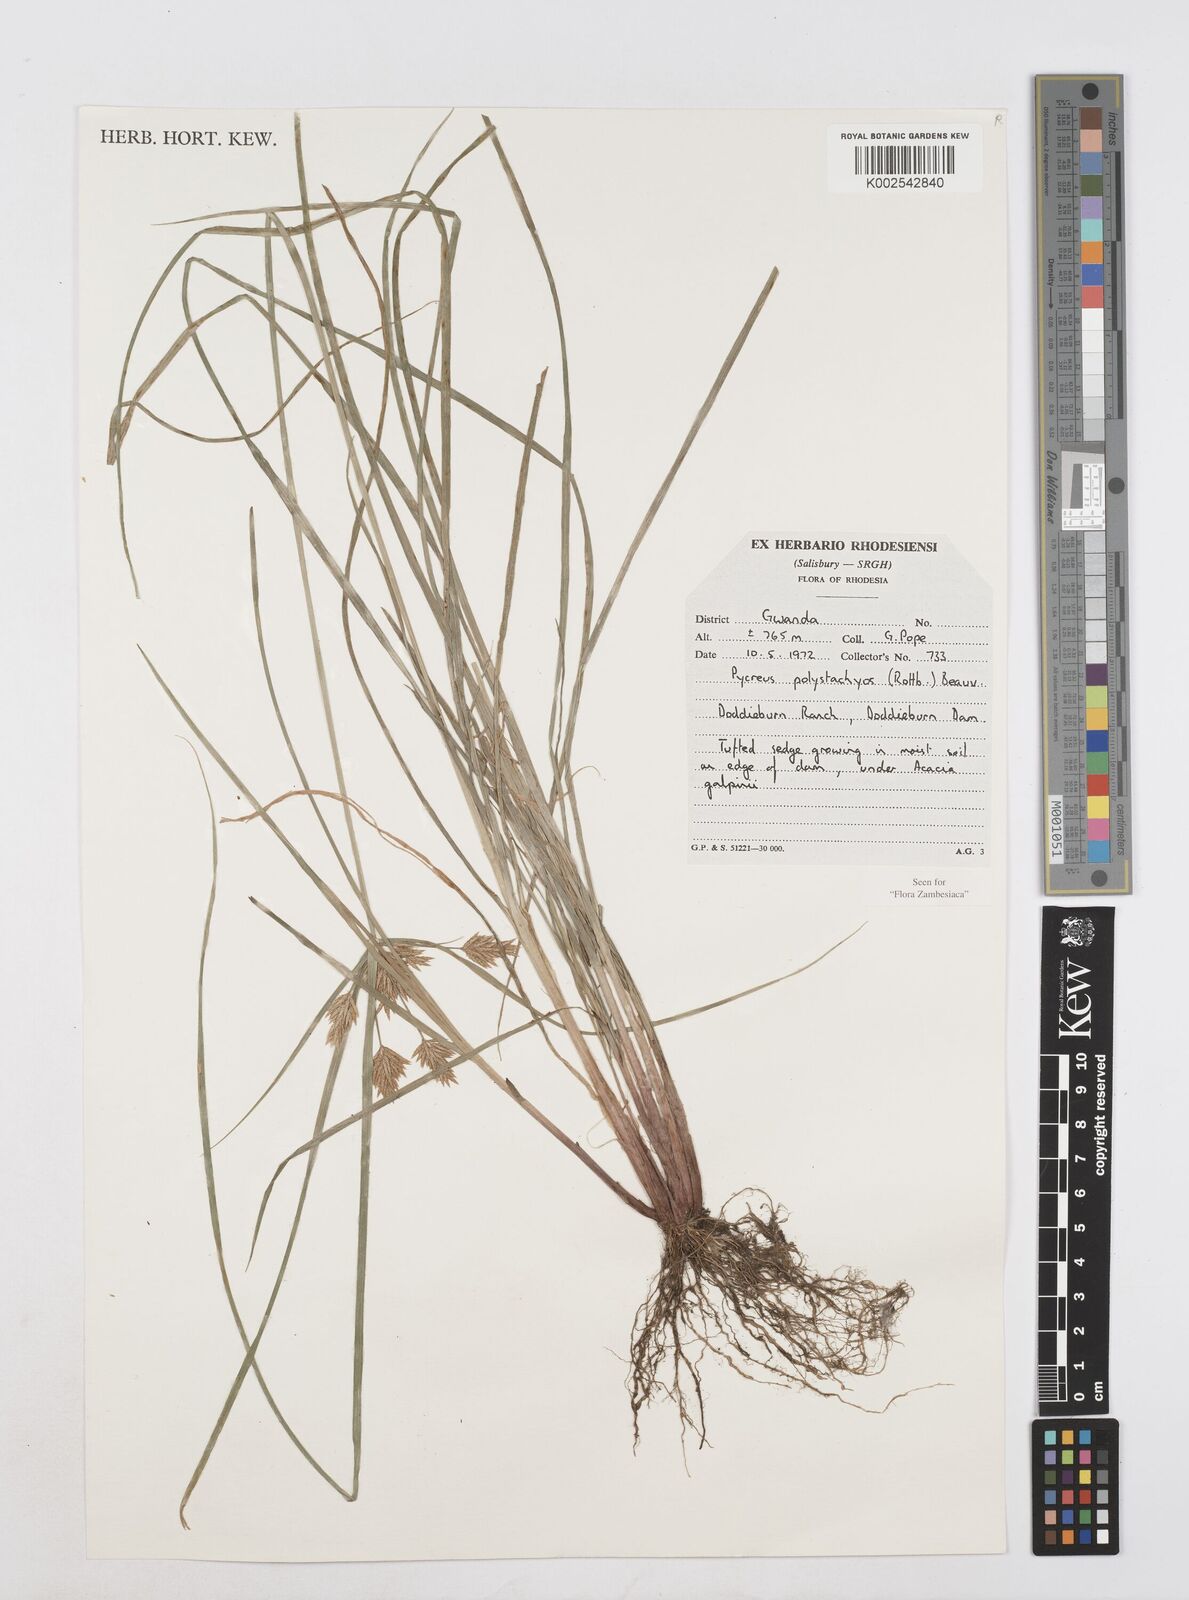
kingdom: Plantae
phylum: Tracheophyta
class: Liliopsida
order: Poales
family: Cyperaceae
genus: Cyperus
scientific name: Cyperus polystachyos
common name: Bunchy flat sedge
